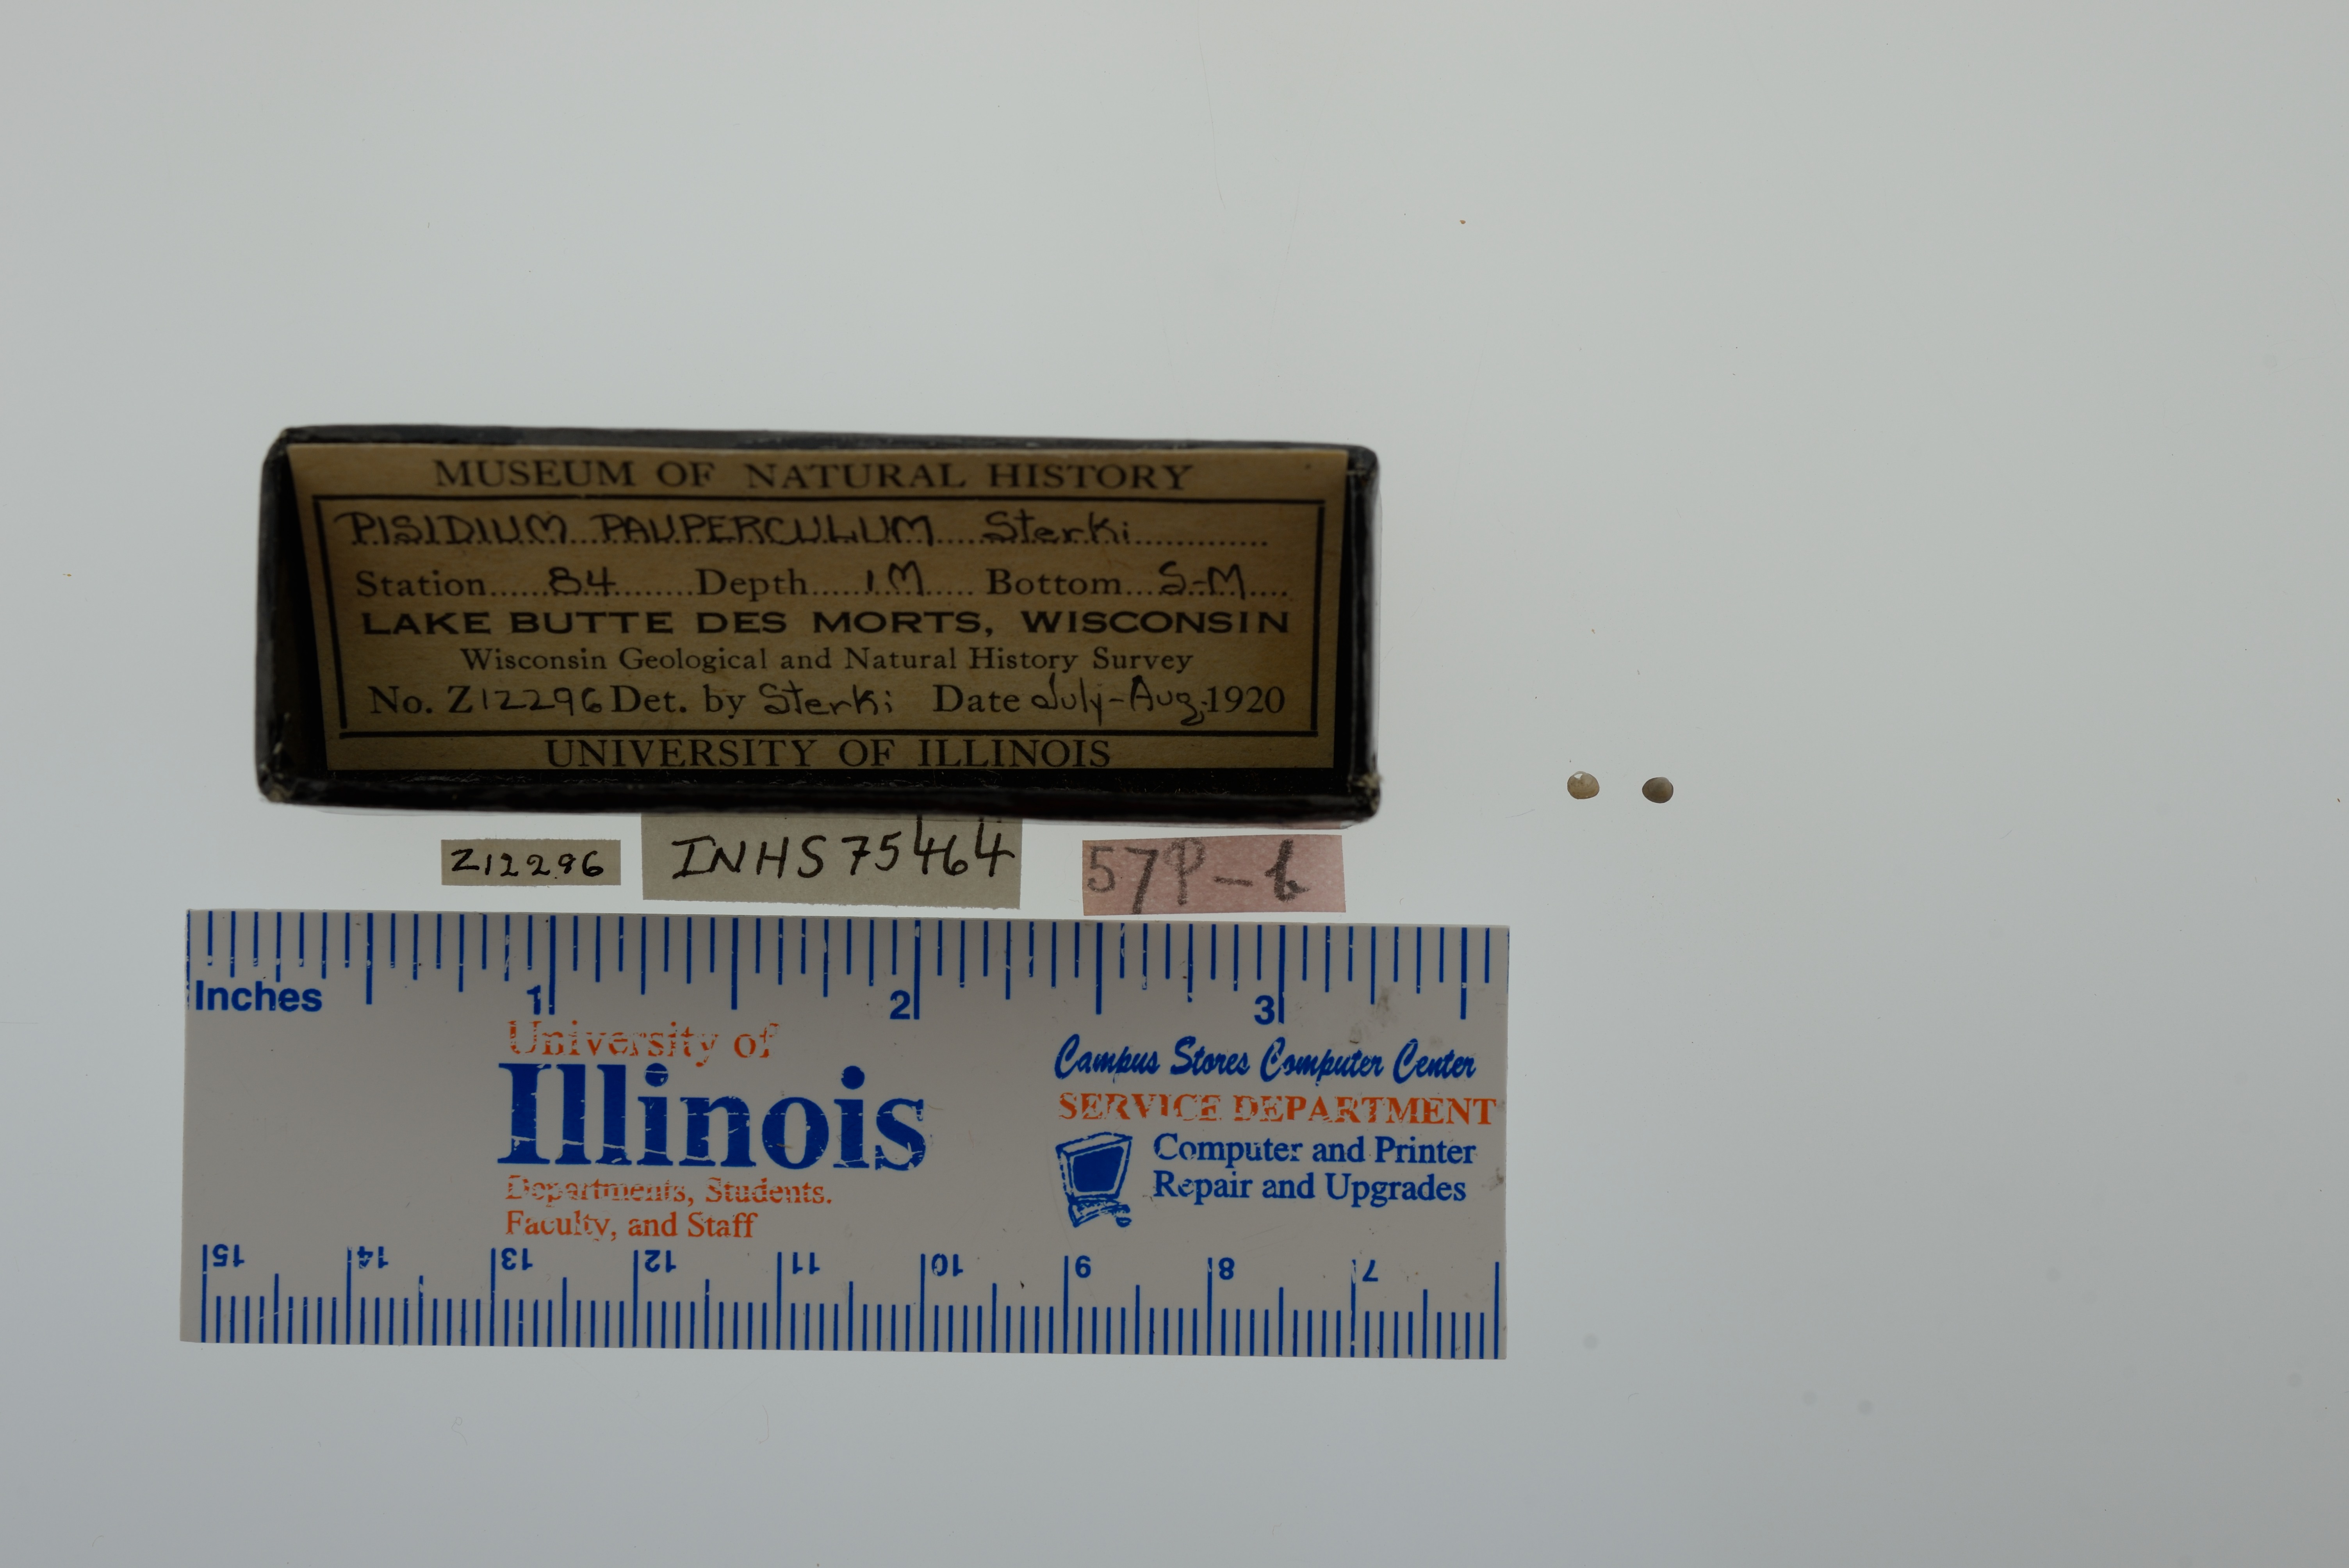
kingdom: Animalia
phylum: Mollusca
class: Bivalvia
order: Sphaeriida
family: Sphaeriidae
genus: Euglesa
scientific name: Euglesa nitida
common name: Shining peaclam
